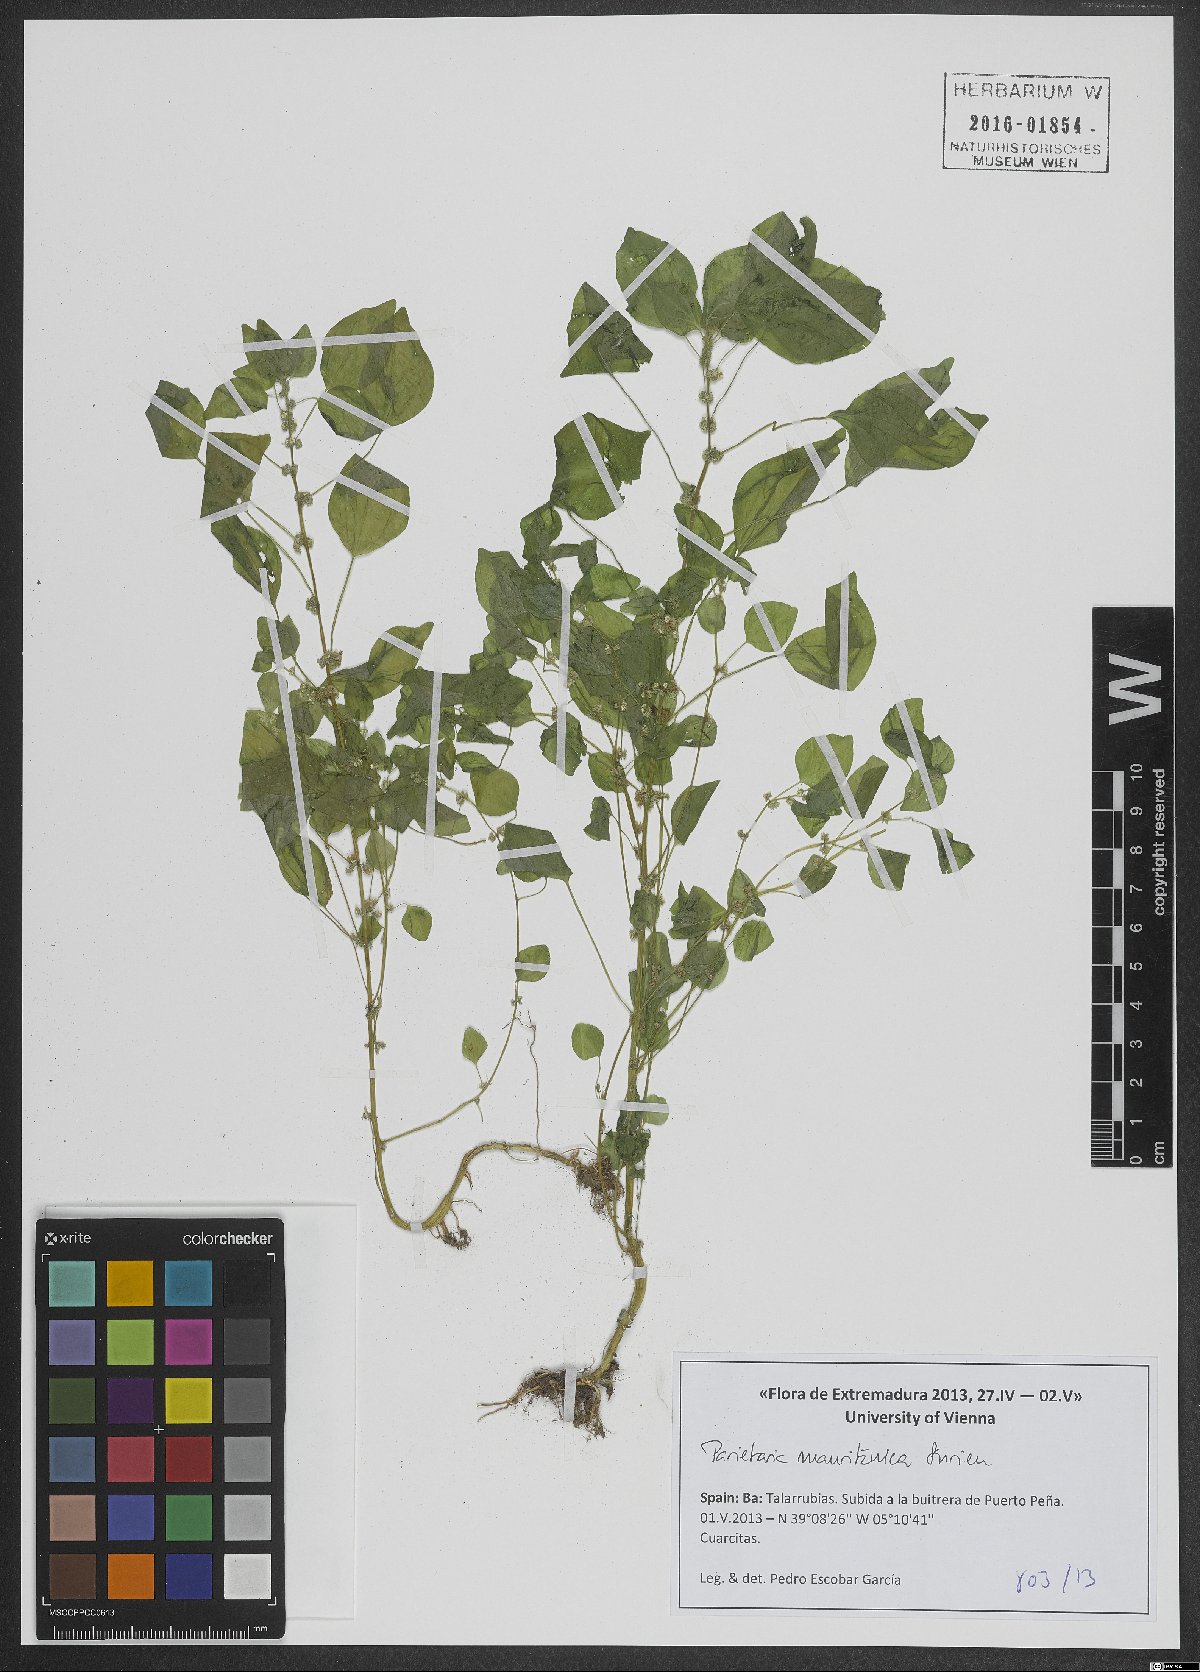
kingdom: Plantae
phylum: Tracheophyta
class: Magnoliopsida
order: Rosales
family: Urticaceae
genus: Parietaria
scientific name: Parietaria mauritanica
